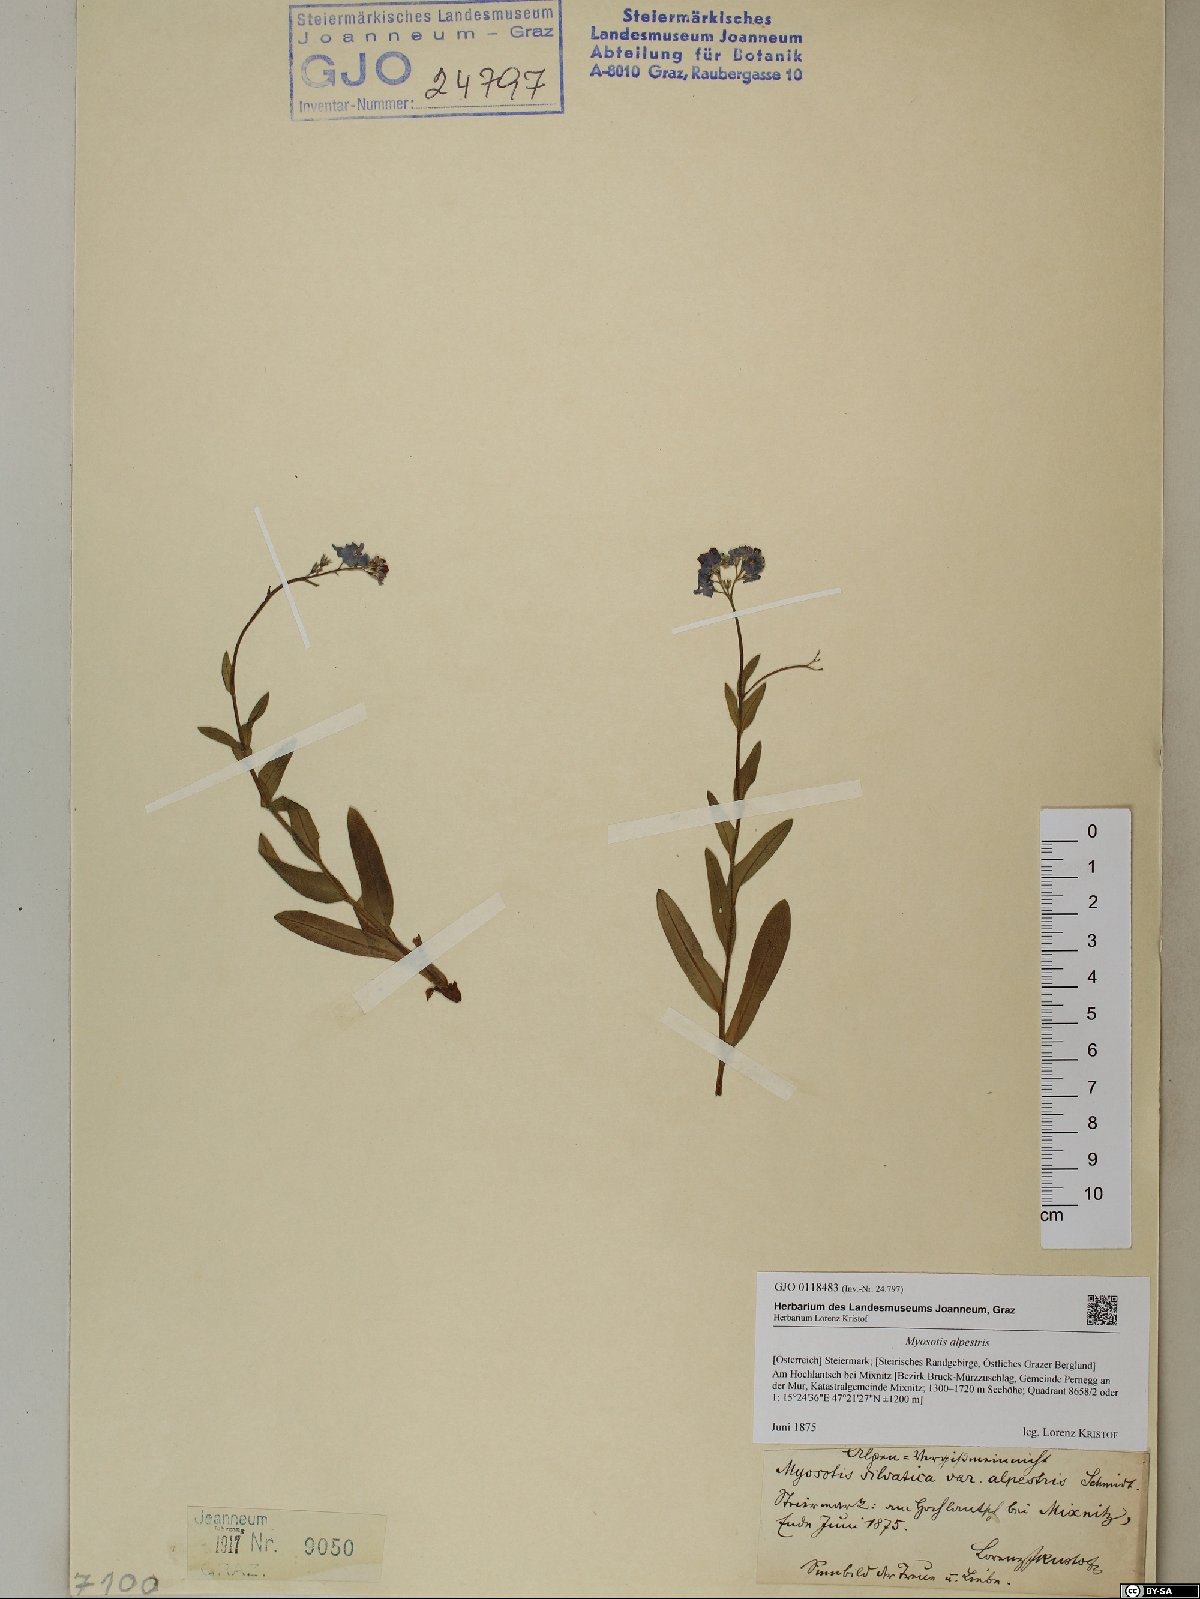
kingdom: Plantae
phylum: Tracheophyta
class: Magnoliopsida
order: Boraginales
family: Boraginaceae
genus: Myosotis
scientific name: Myosotis alpestris
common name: Alpine forget-me-not
